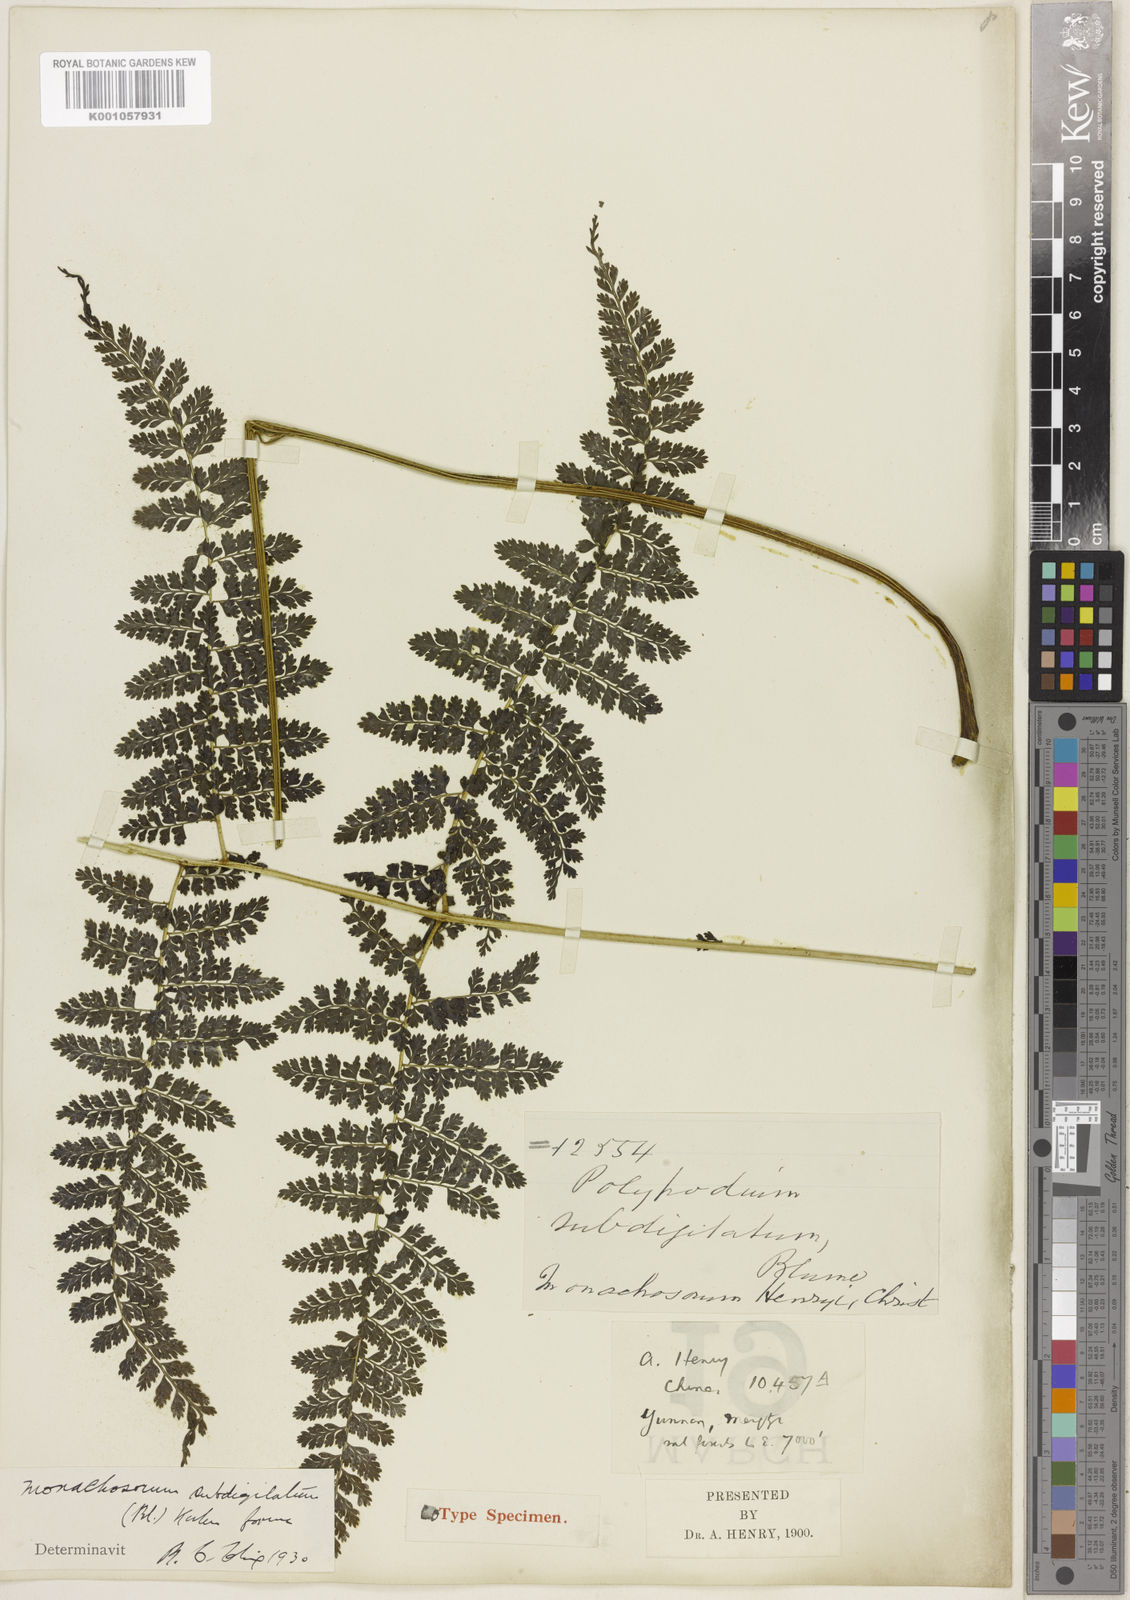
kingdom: Plantae
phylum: Tracheophyta
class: Polypodiopsida
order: Polypodiales
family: Dennstaedtiaceae
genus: Monachosorum
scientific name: Monachosorum subdigitatum
